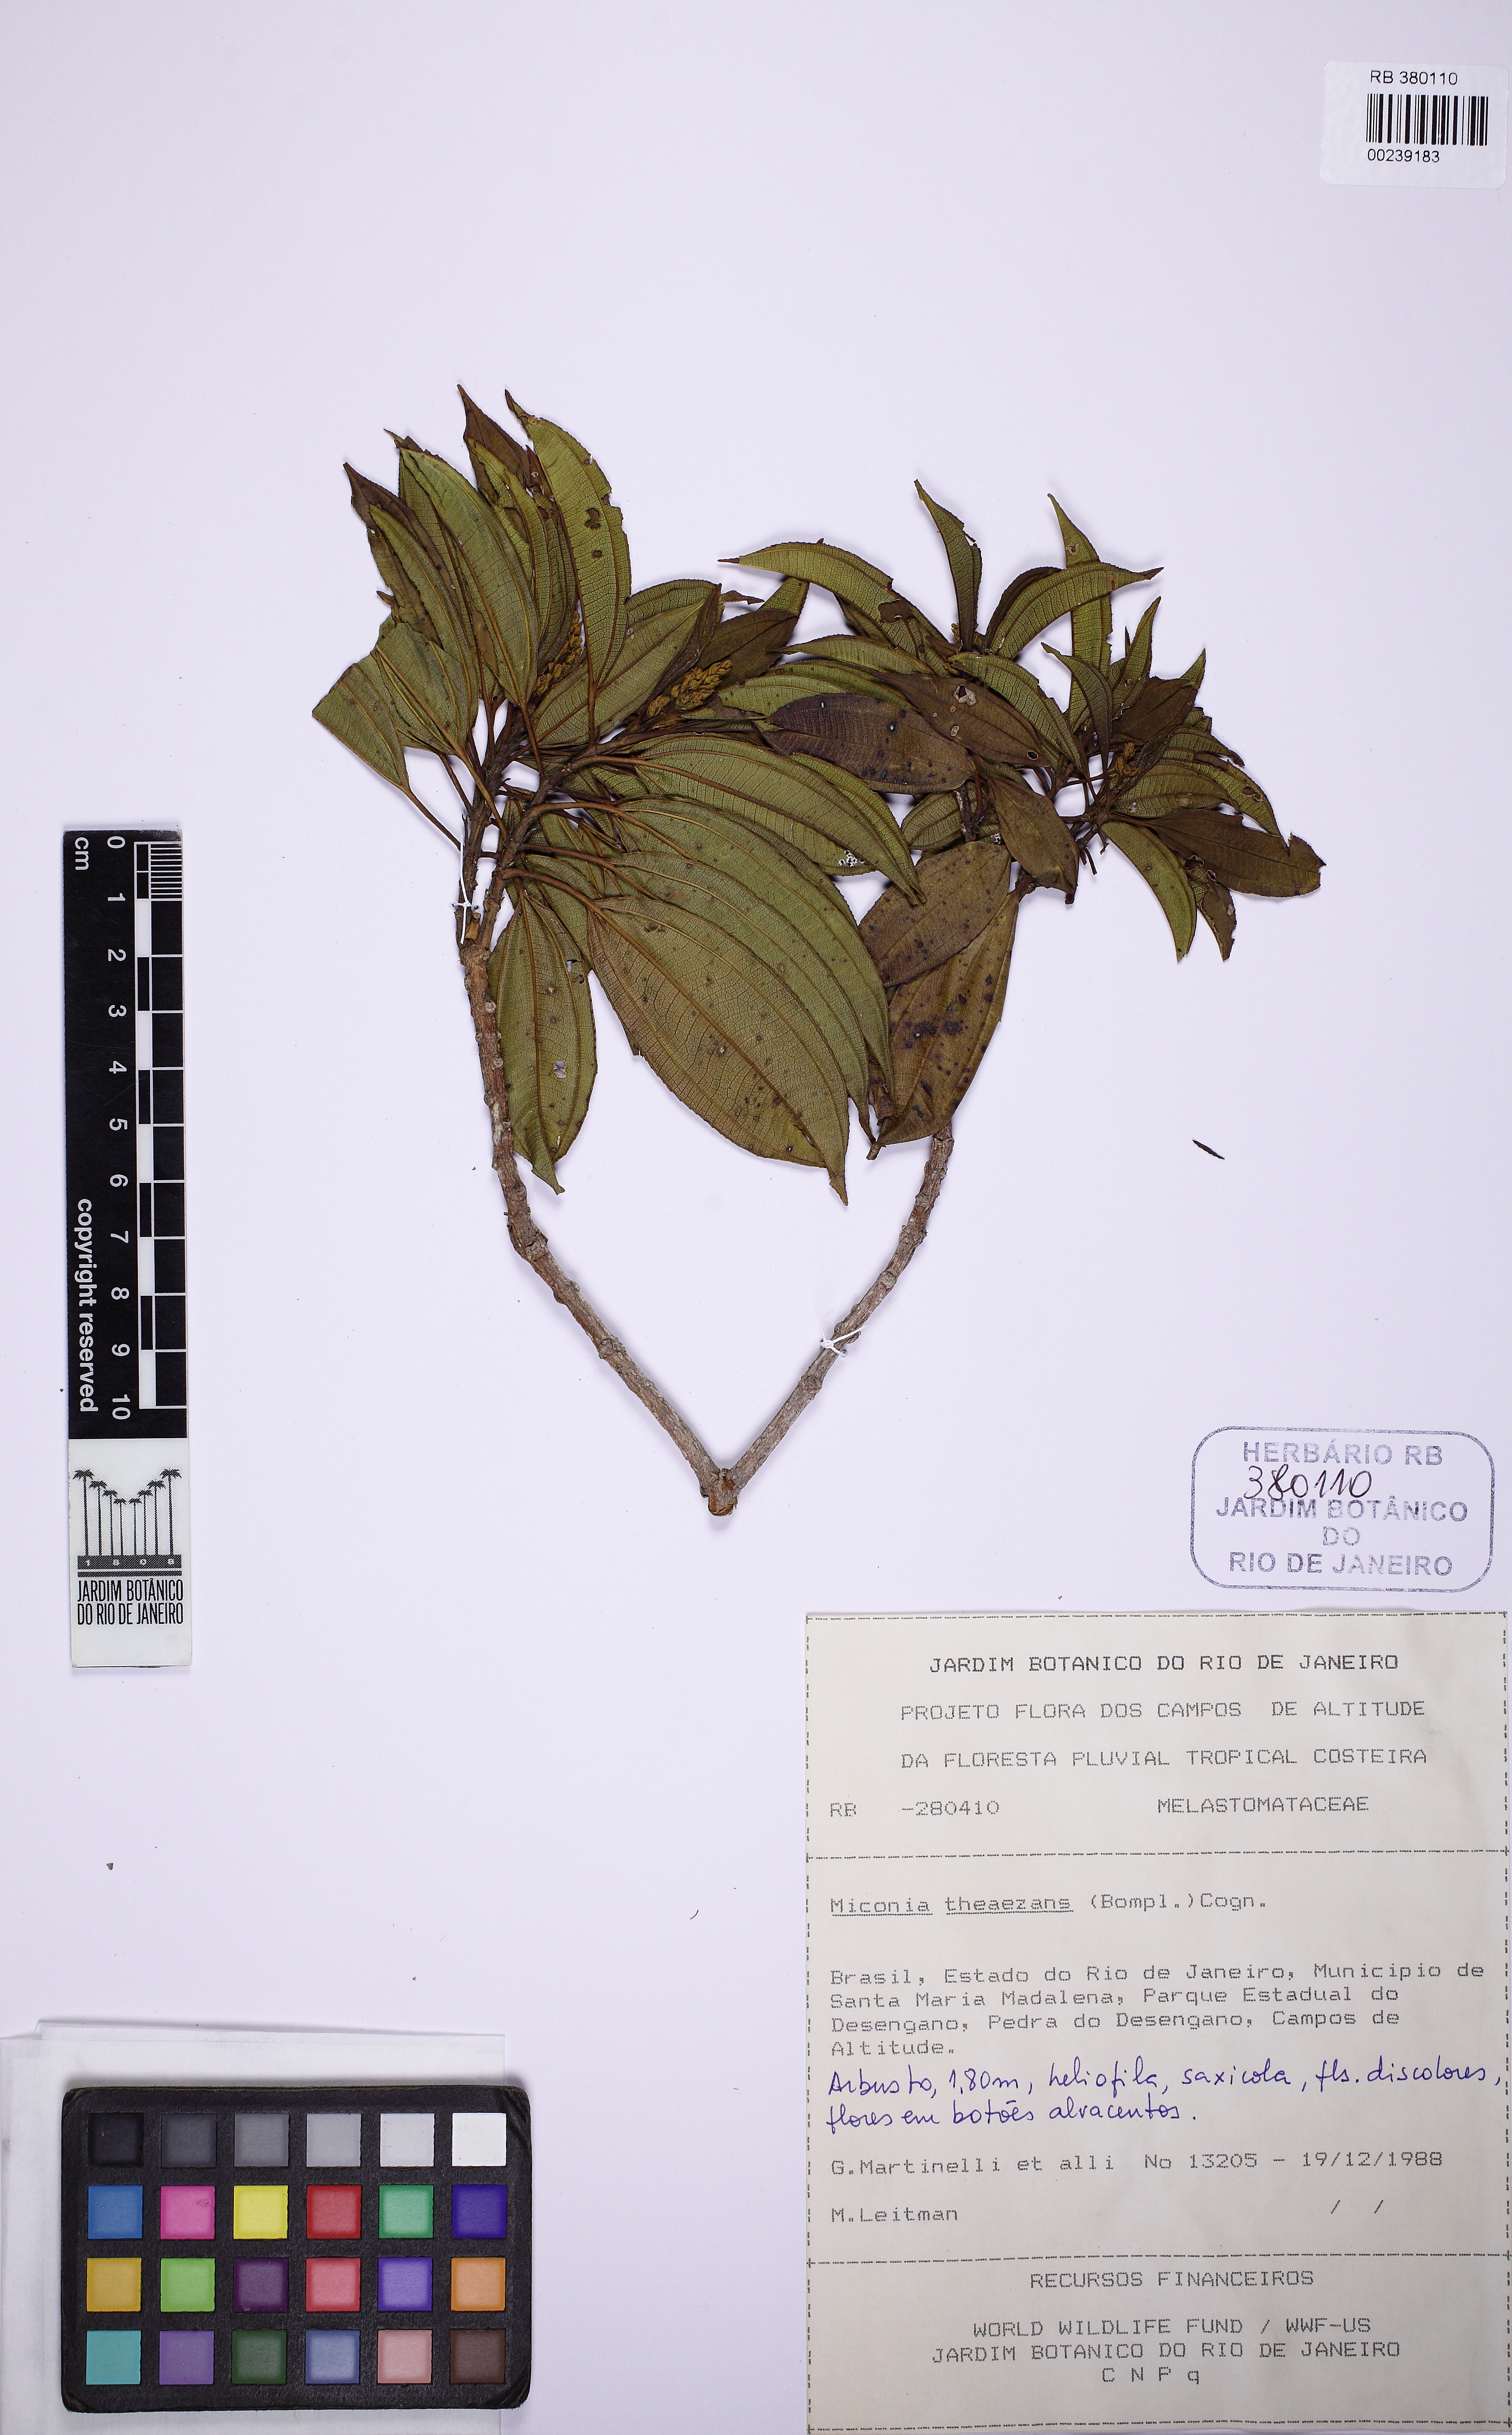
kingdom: Plantae
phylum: Tracheophyta
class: Magnoliopsida
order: Myrtales
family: Melastomataceae
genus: Miconia
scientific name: Miconia theizans
